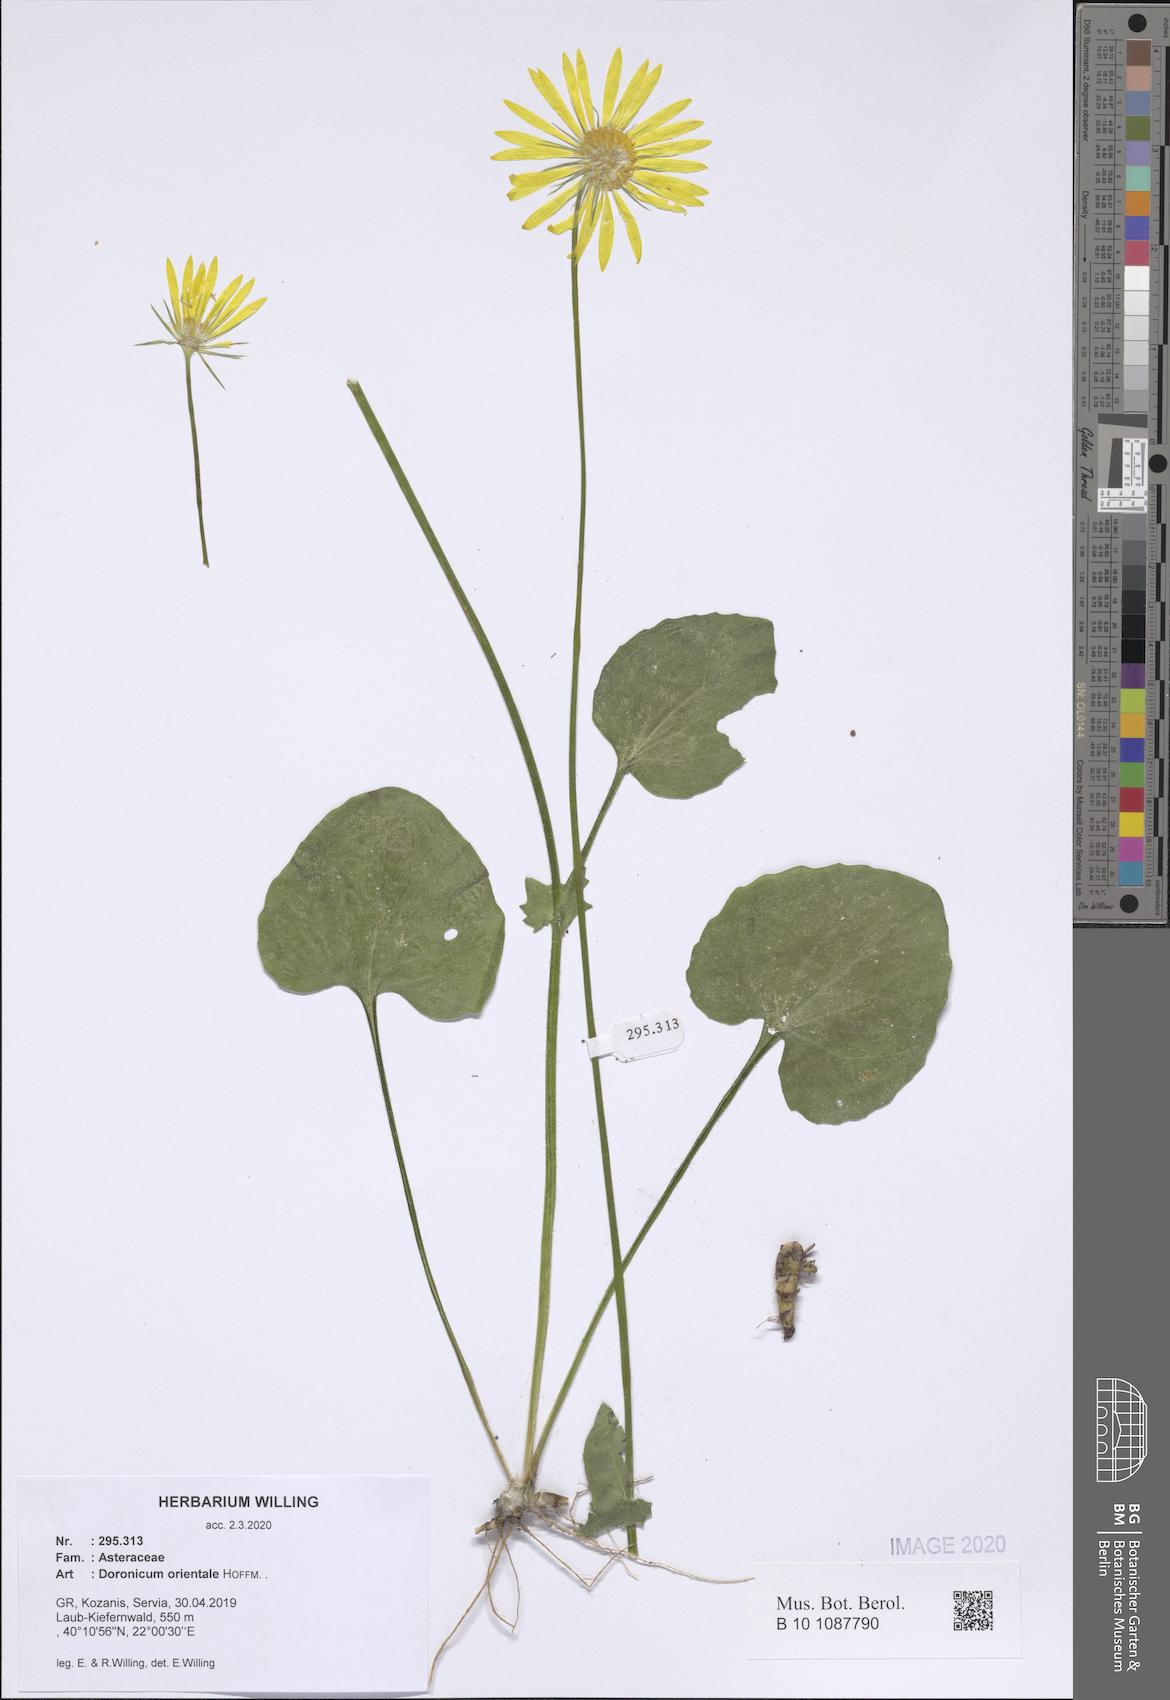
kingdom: Plantae
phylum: Tracheophyta
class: Magnoliopsida
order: Asterales
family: Asteraceae
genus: Doronicum
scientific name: Doronicum orientale
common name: Oriental leopard's-bane
